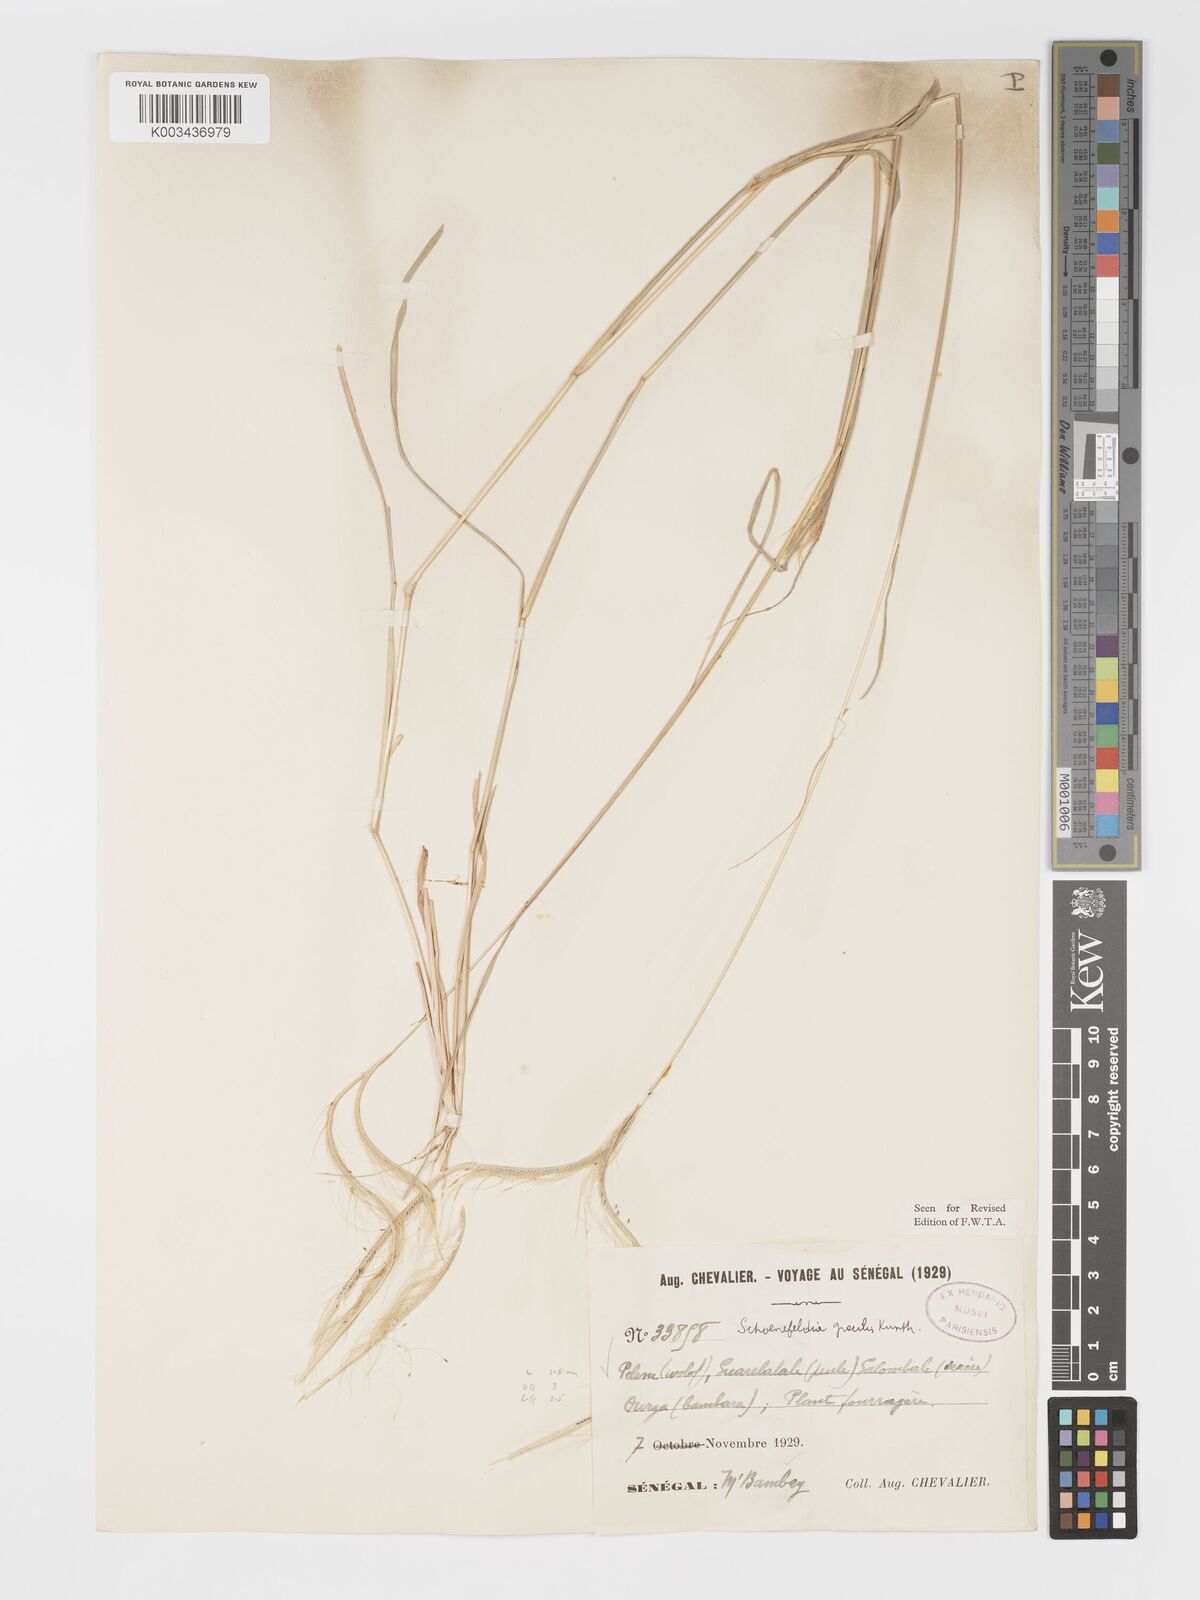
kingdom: Plantae
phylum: Tracheophyta
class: Liliopsida
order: Poales
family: Poaceae
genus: Schoenefeldia
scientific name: Schoenefeldia gracilis
